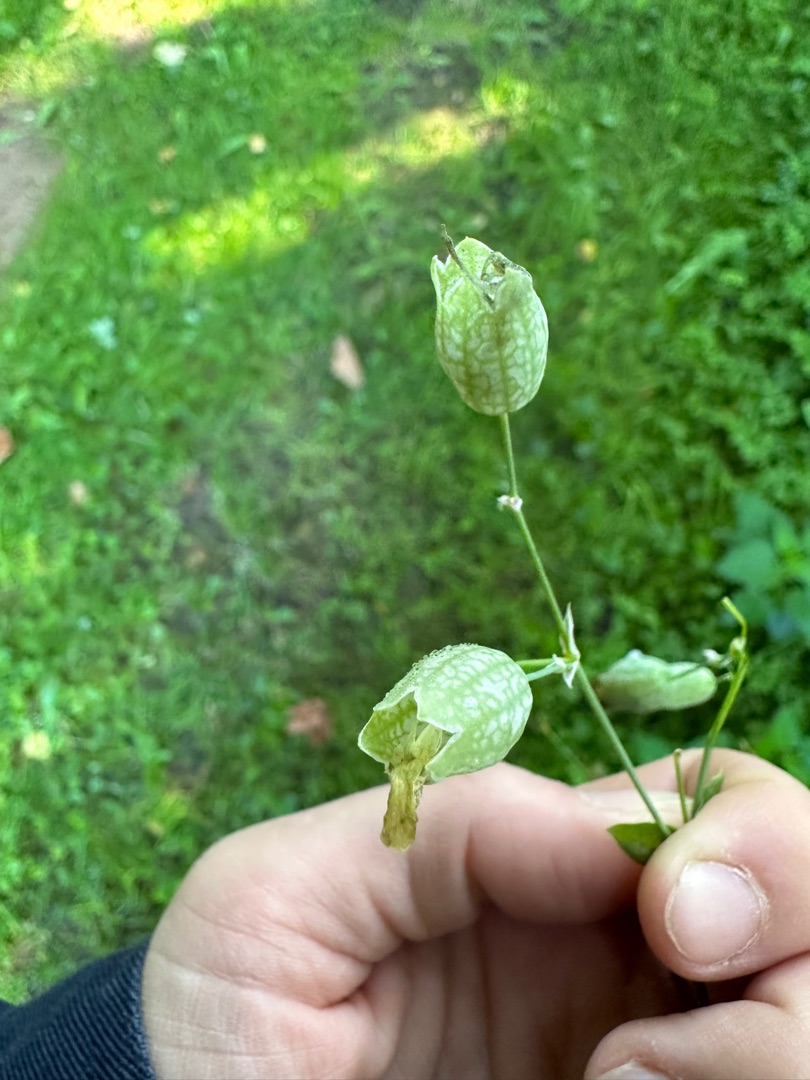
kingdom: Plantae
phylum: Tracheophyta
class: Magnoliopsida
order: Caryophyllales
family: Caryophyllaceae
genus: Silene
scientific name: Silene vulgaris
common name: Blæresmælde
